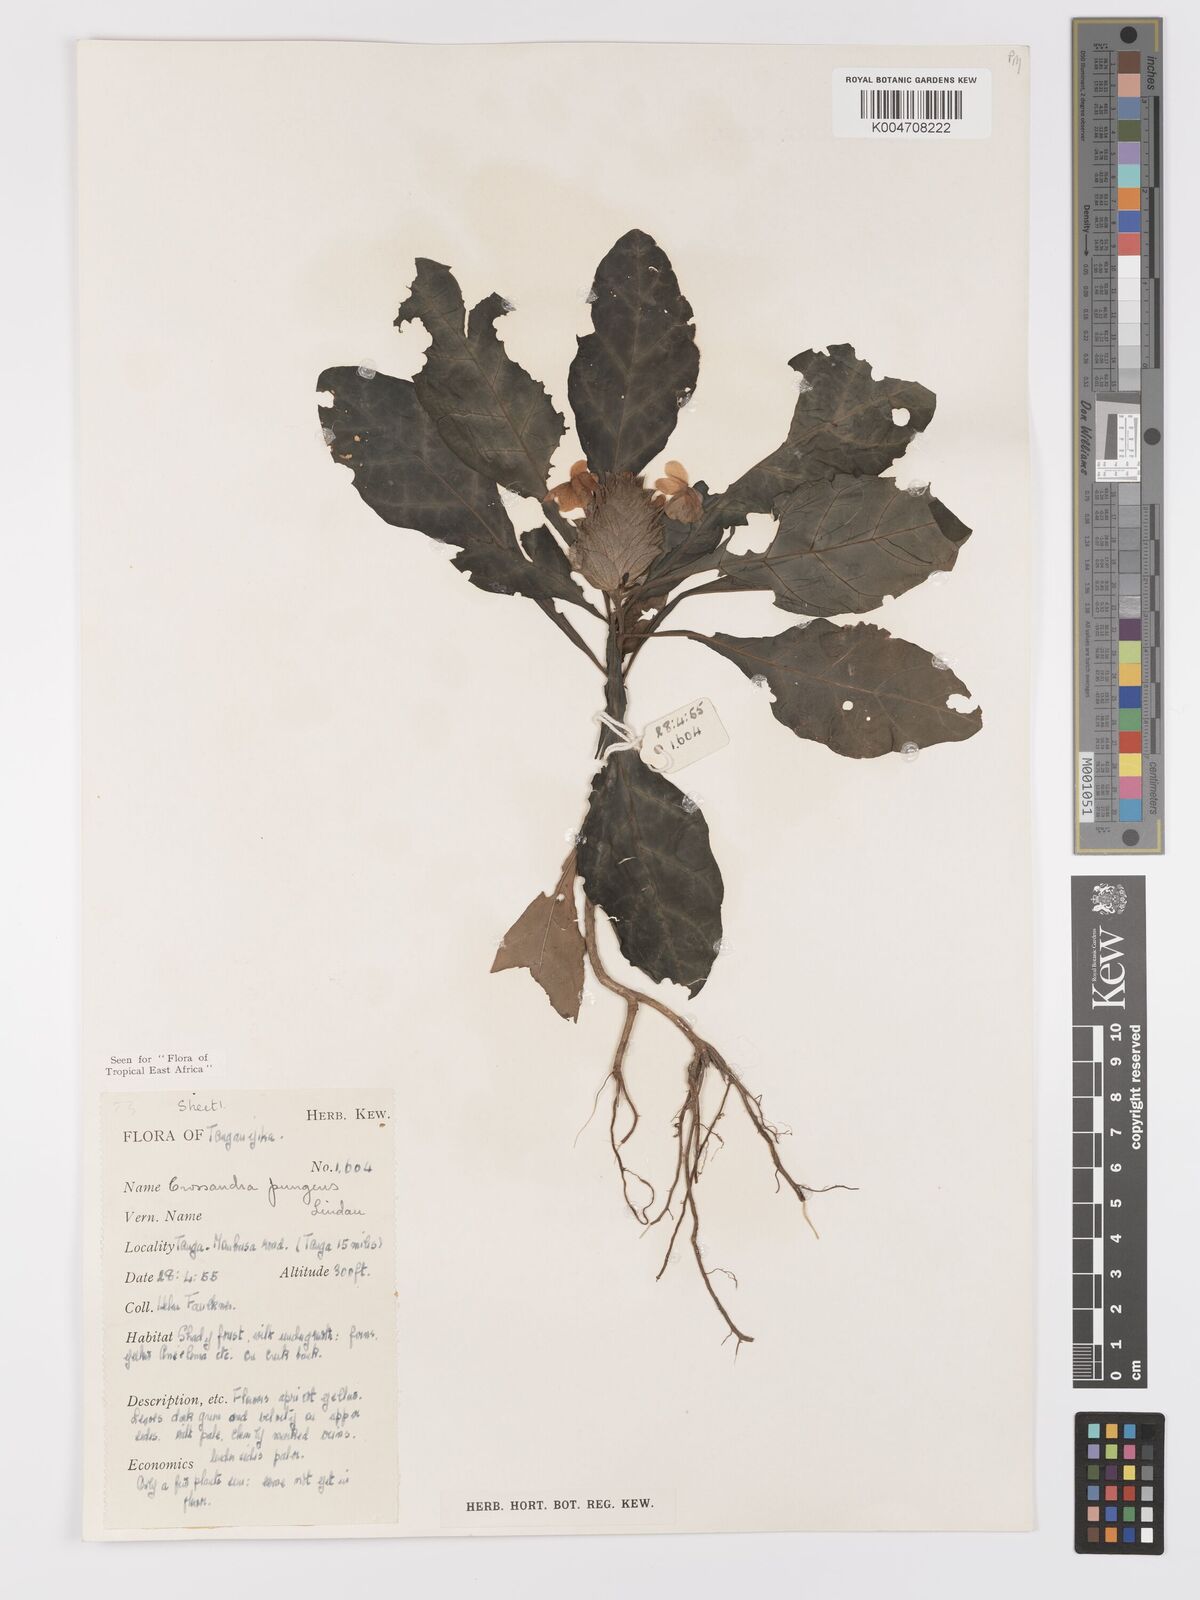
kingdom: Plantae
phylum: Tracheophyta
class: Magnoliopsida
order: Lamiales
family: Acanthaceae
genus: Crossandra
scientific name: Crossandra pungens
